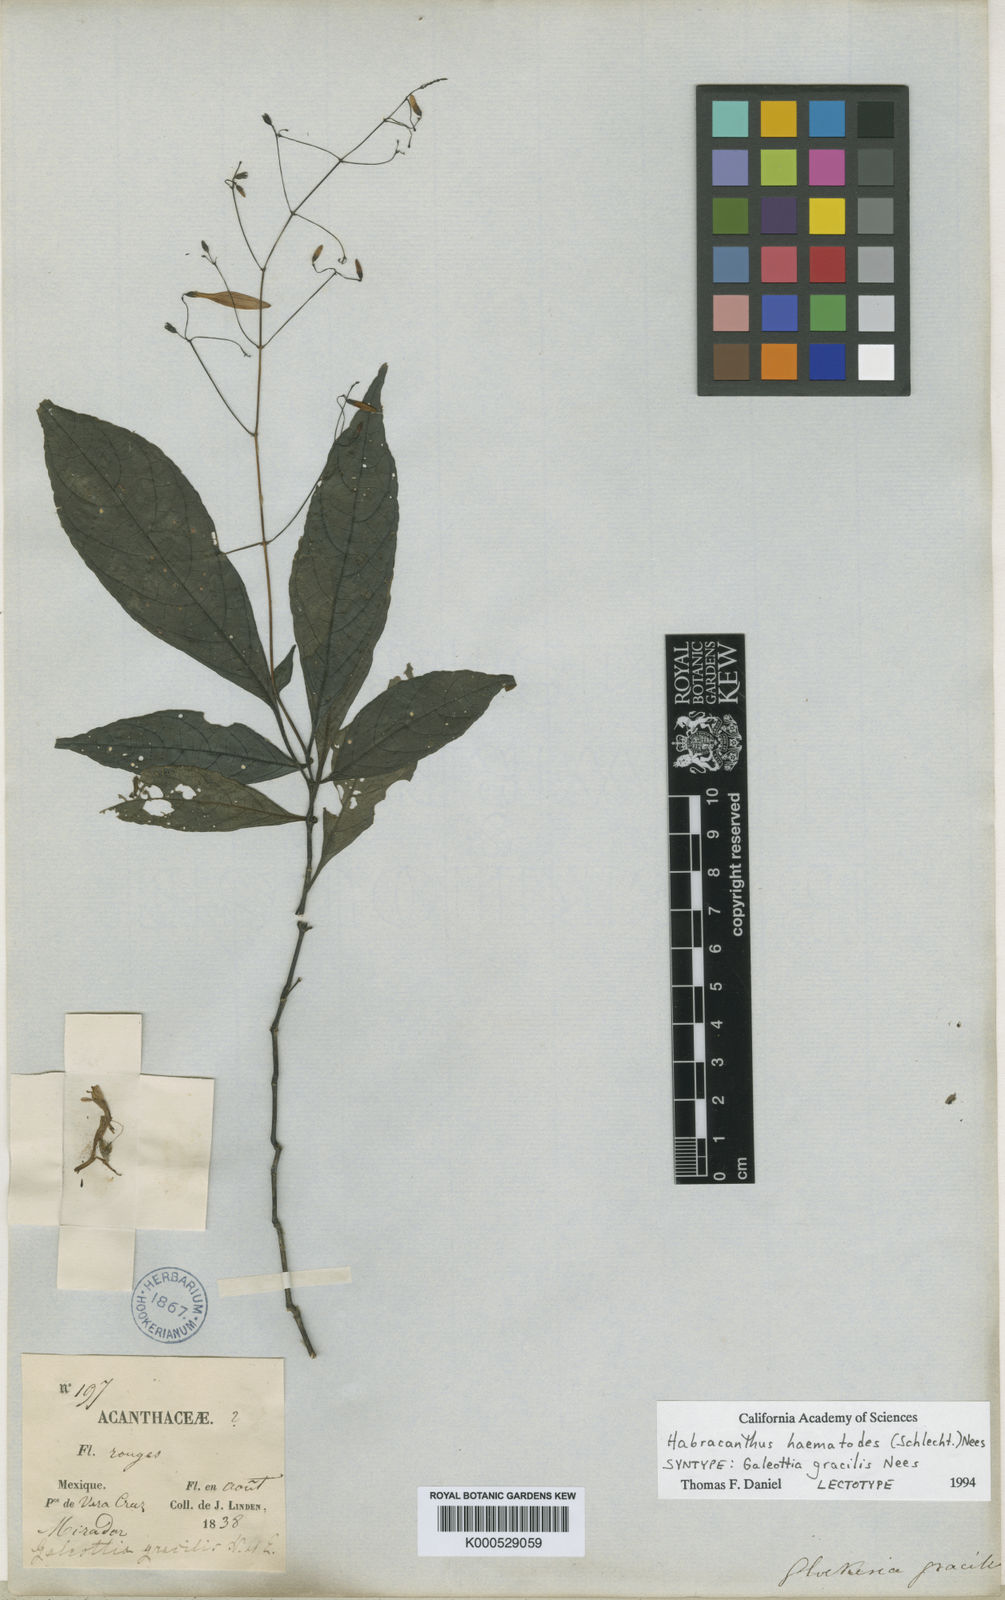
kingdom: Plantae
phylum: Tracheophyta
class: Magnoliopsida
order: Lamiales
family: Acanthaceae
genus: Stenostephanus
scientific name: Stenostephanus gracilis
